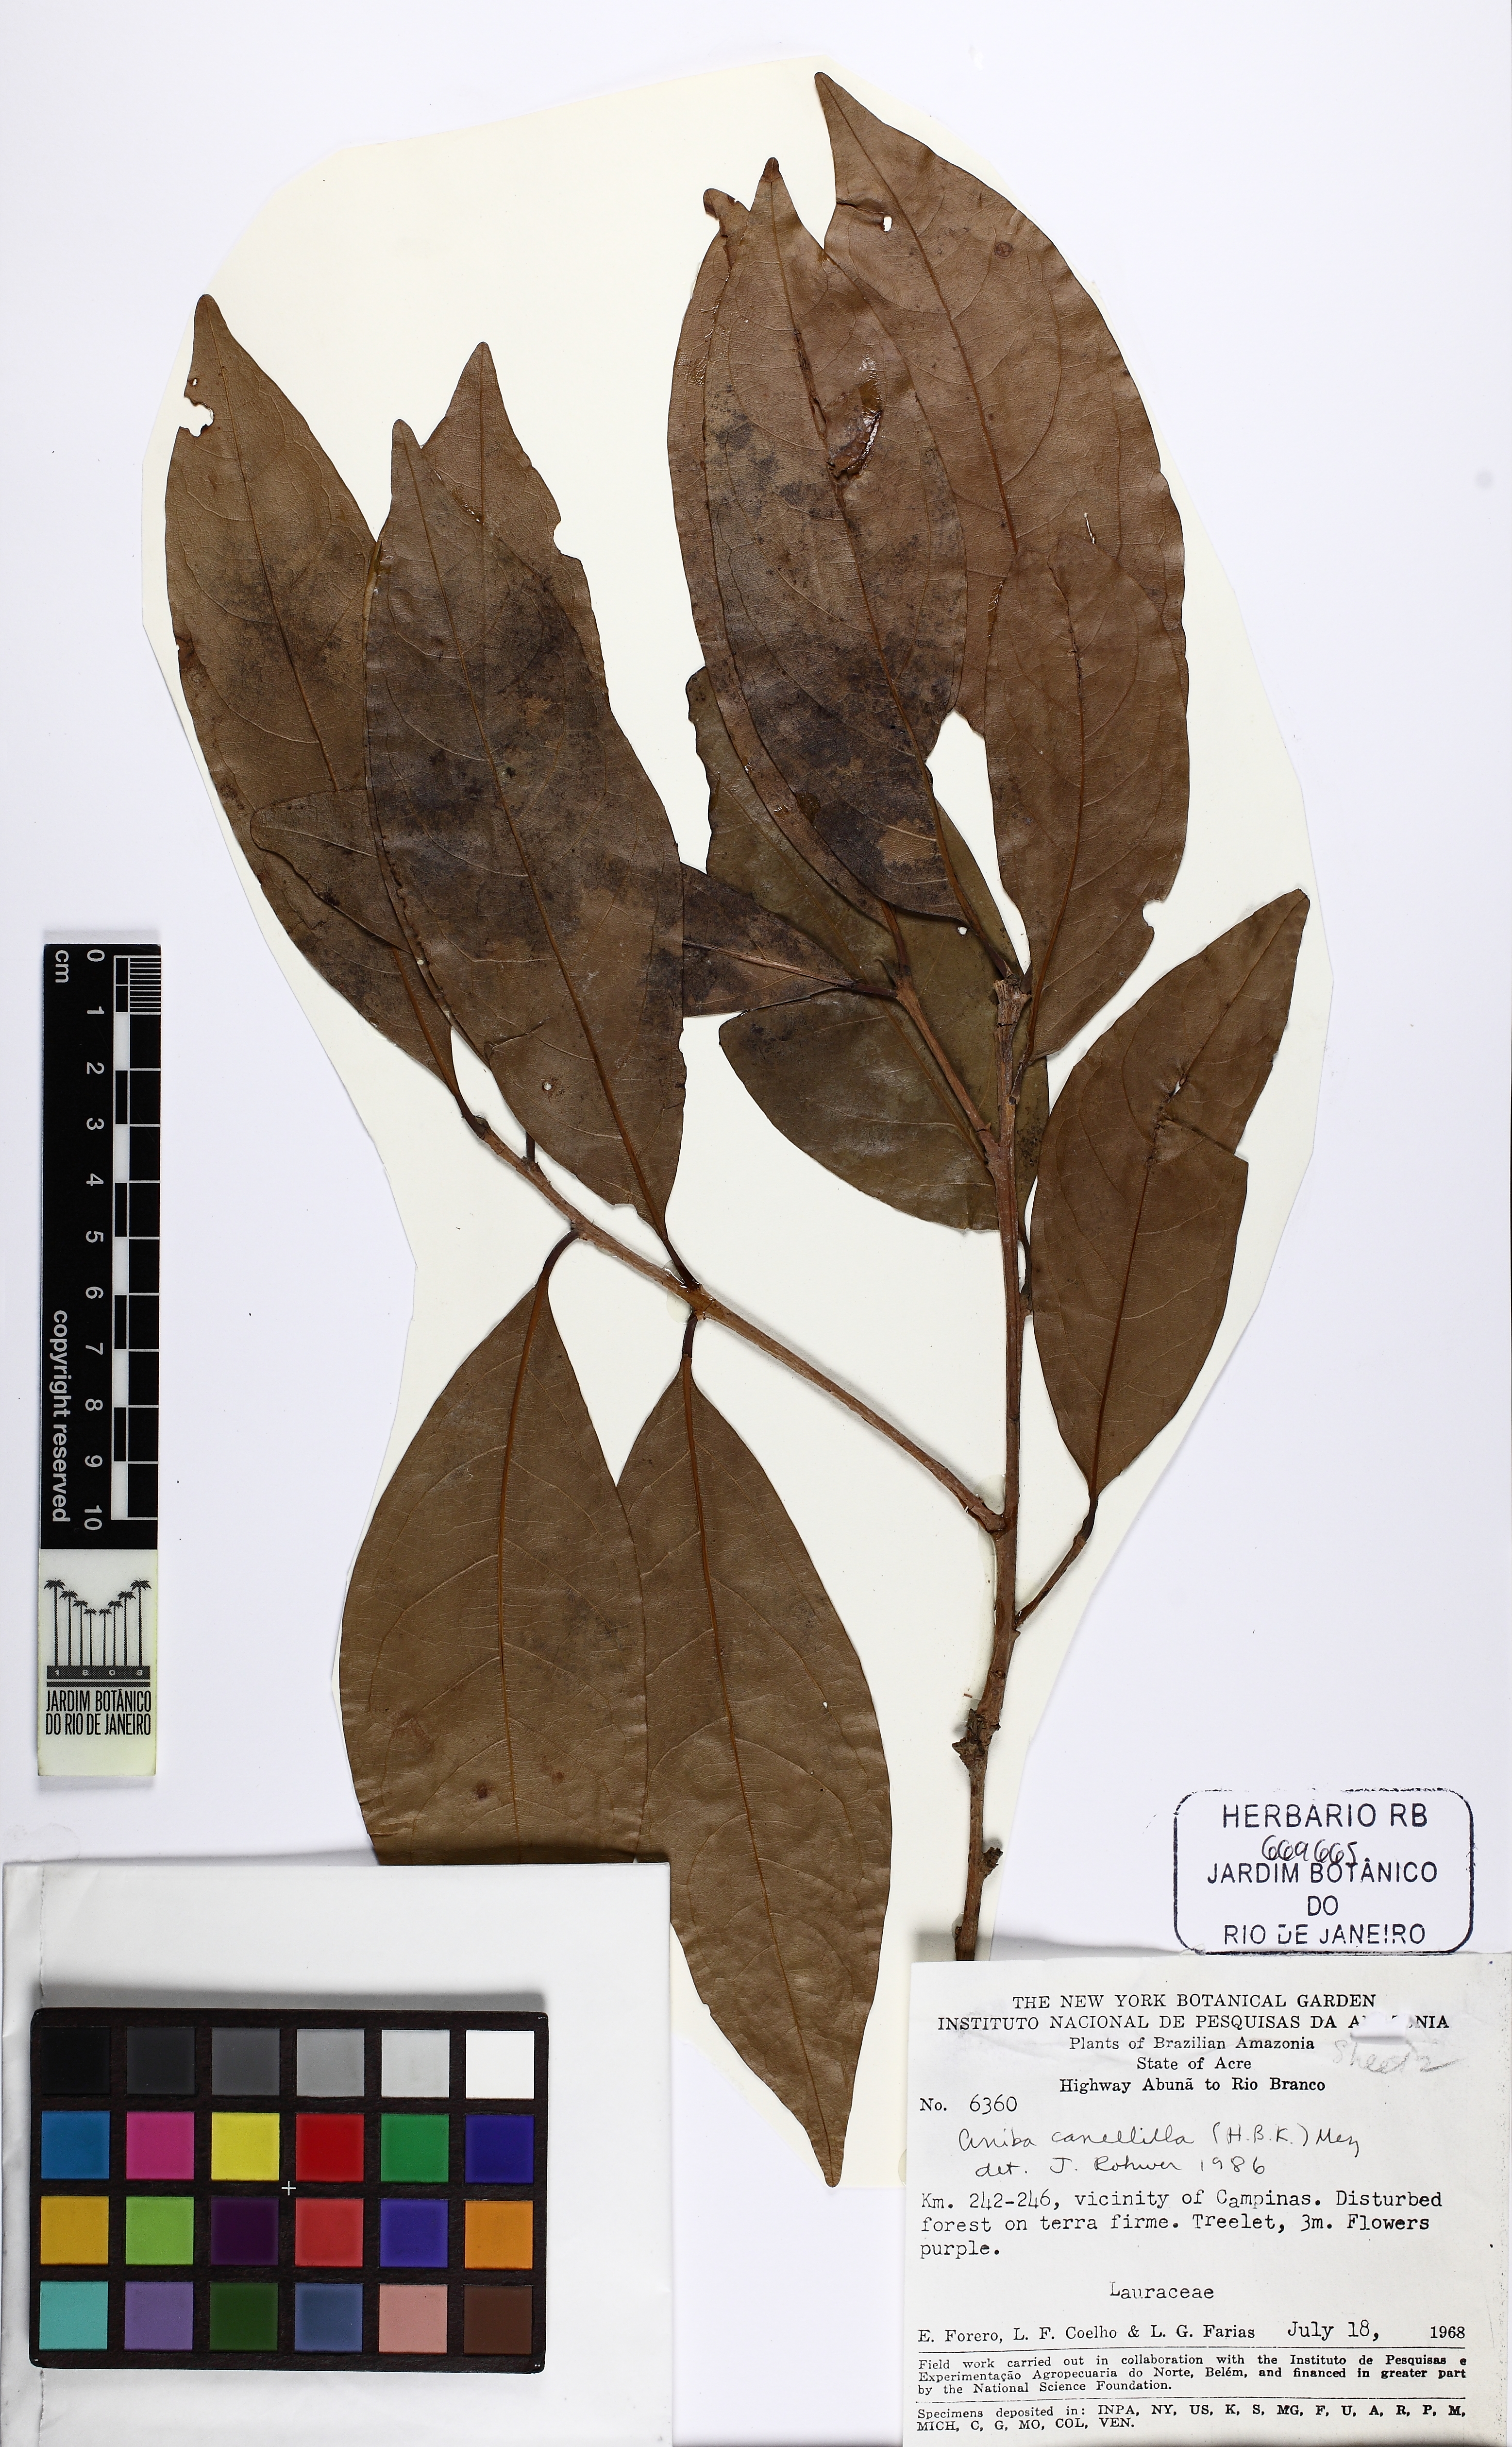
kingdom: Plantae
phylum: Tracheophyta
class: Magnoliopsida
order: Laurales
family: Lauraceae
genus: Aniba
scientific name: Aniba canelilla
